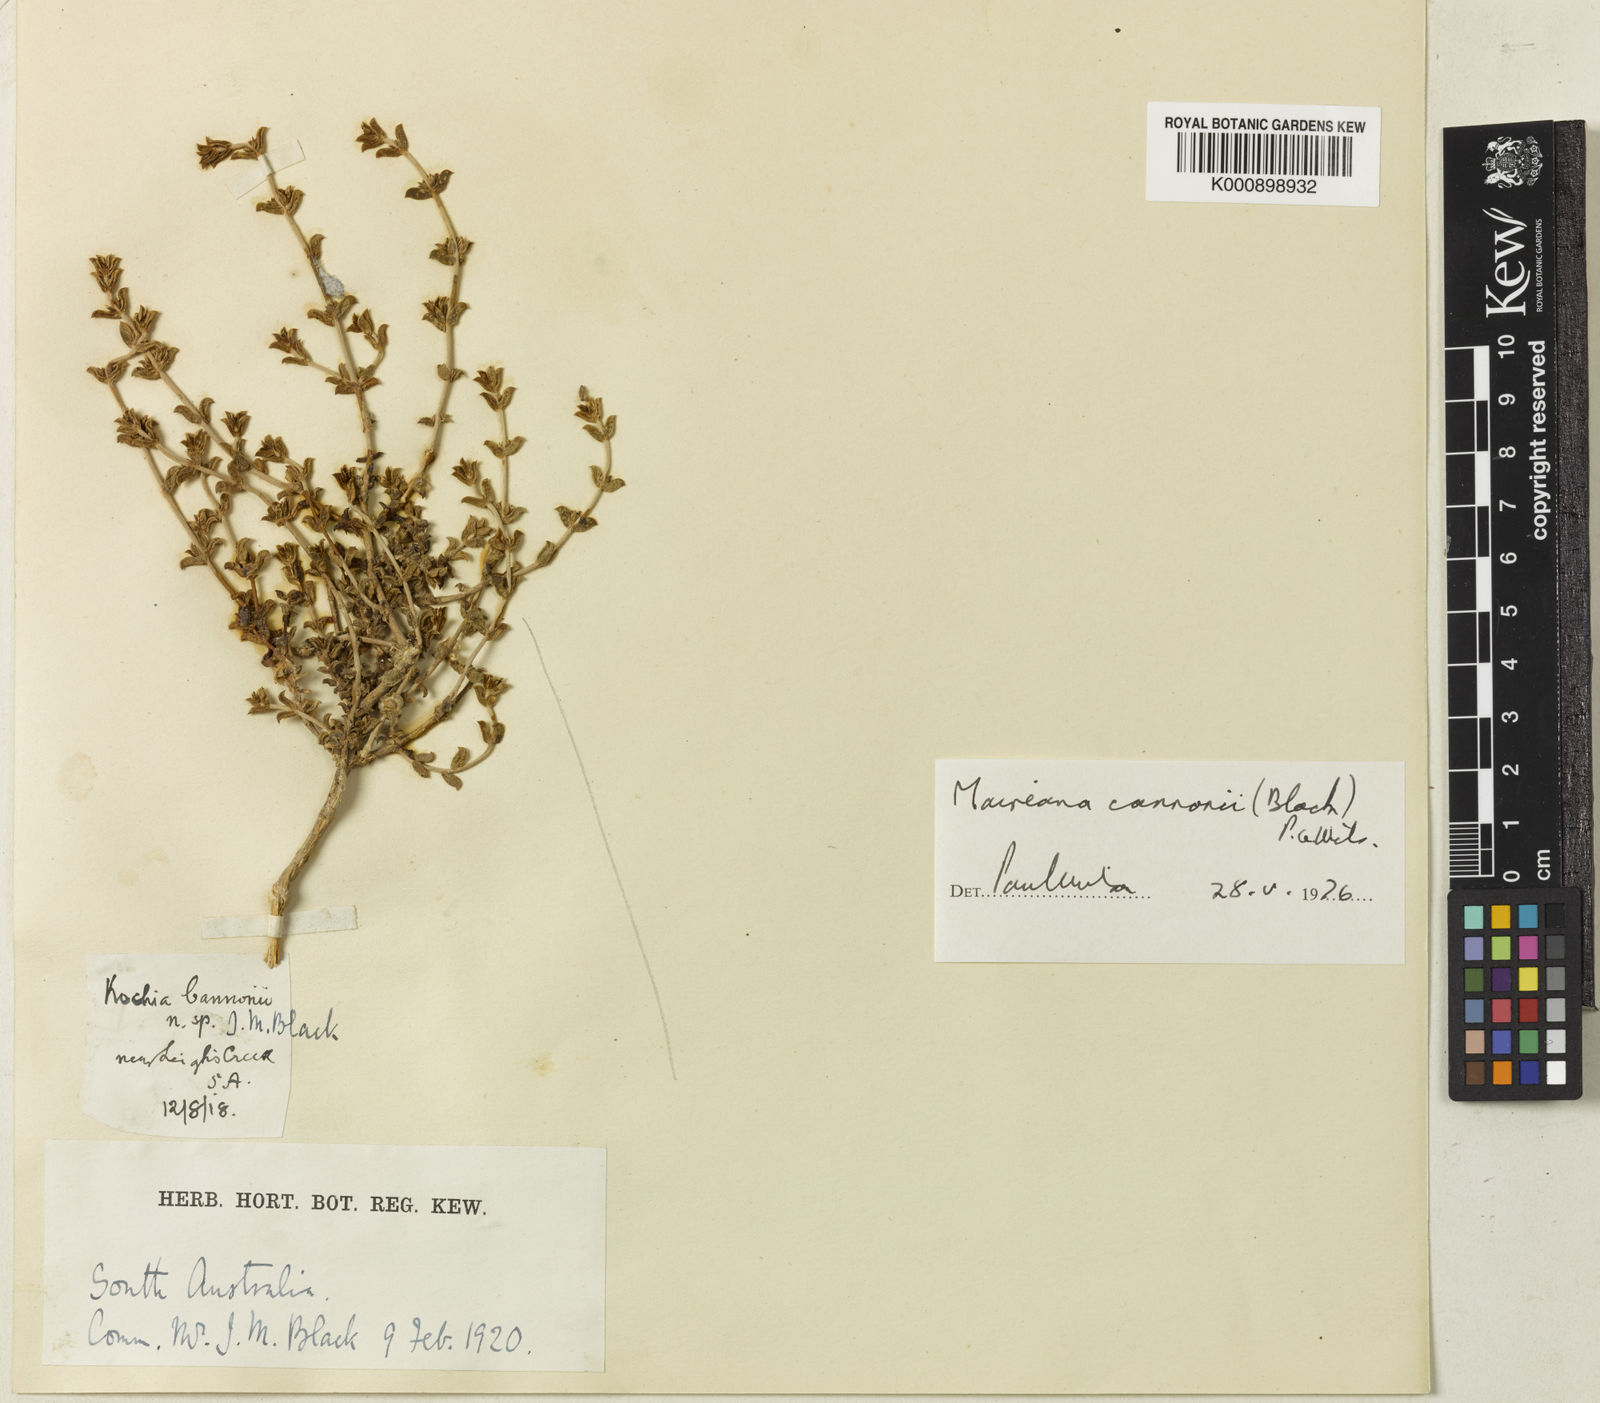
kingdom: Plantae
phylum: Tracheophyta
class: Magnoliopsida
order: Caryophyllales
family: Amaranthaceae
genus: Maireana
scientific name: Maireana cannonii
